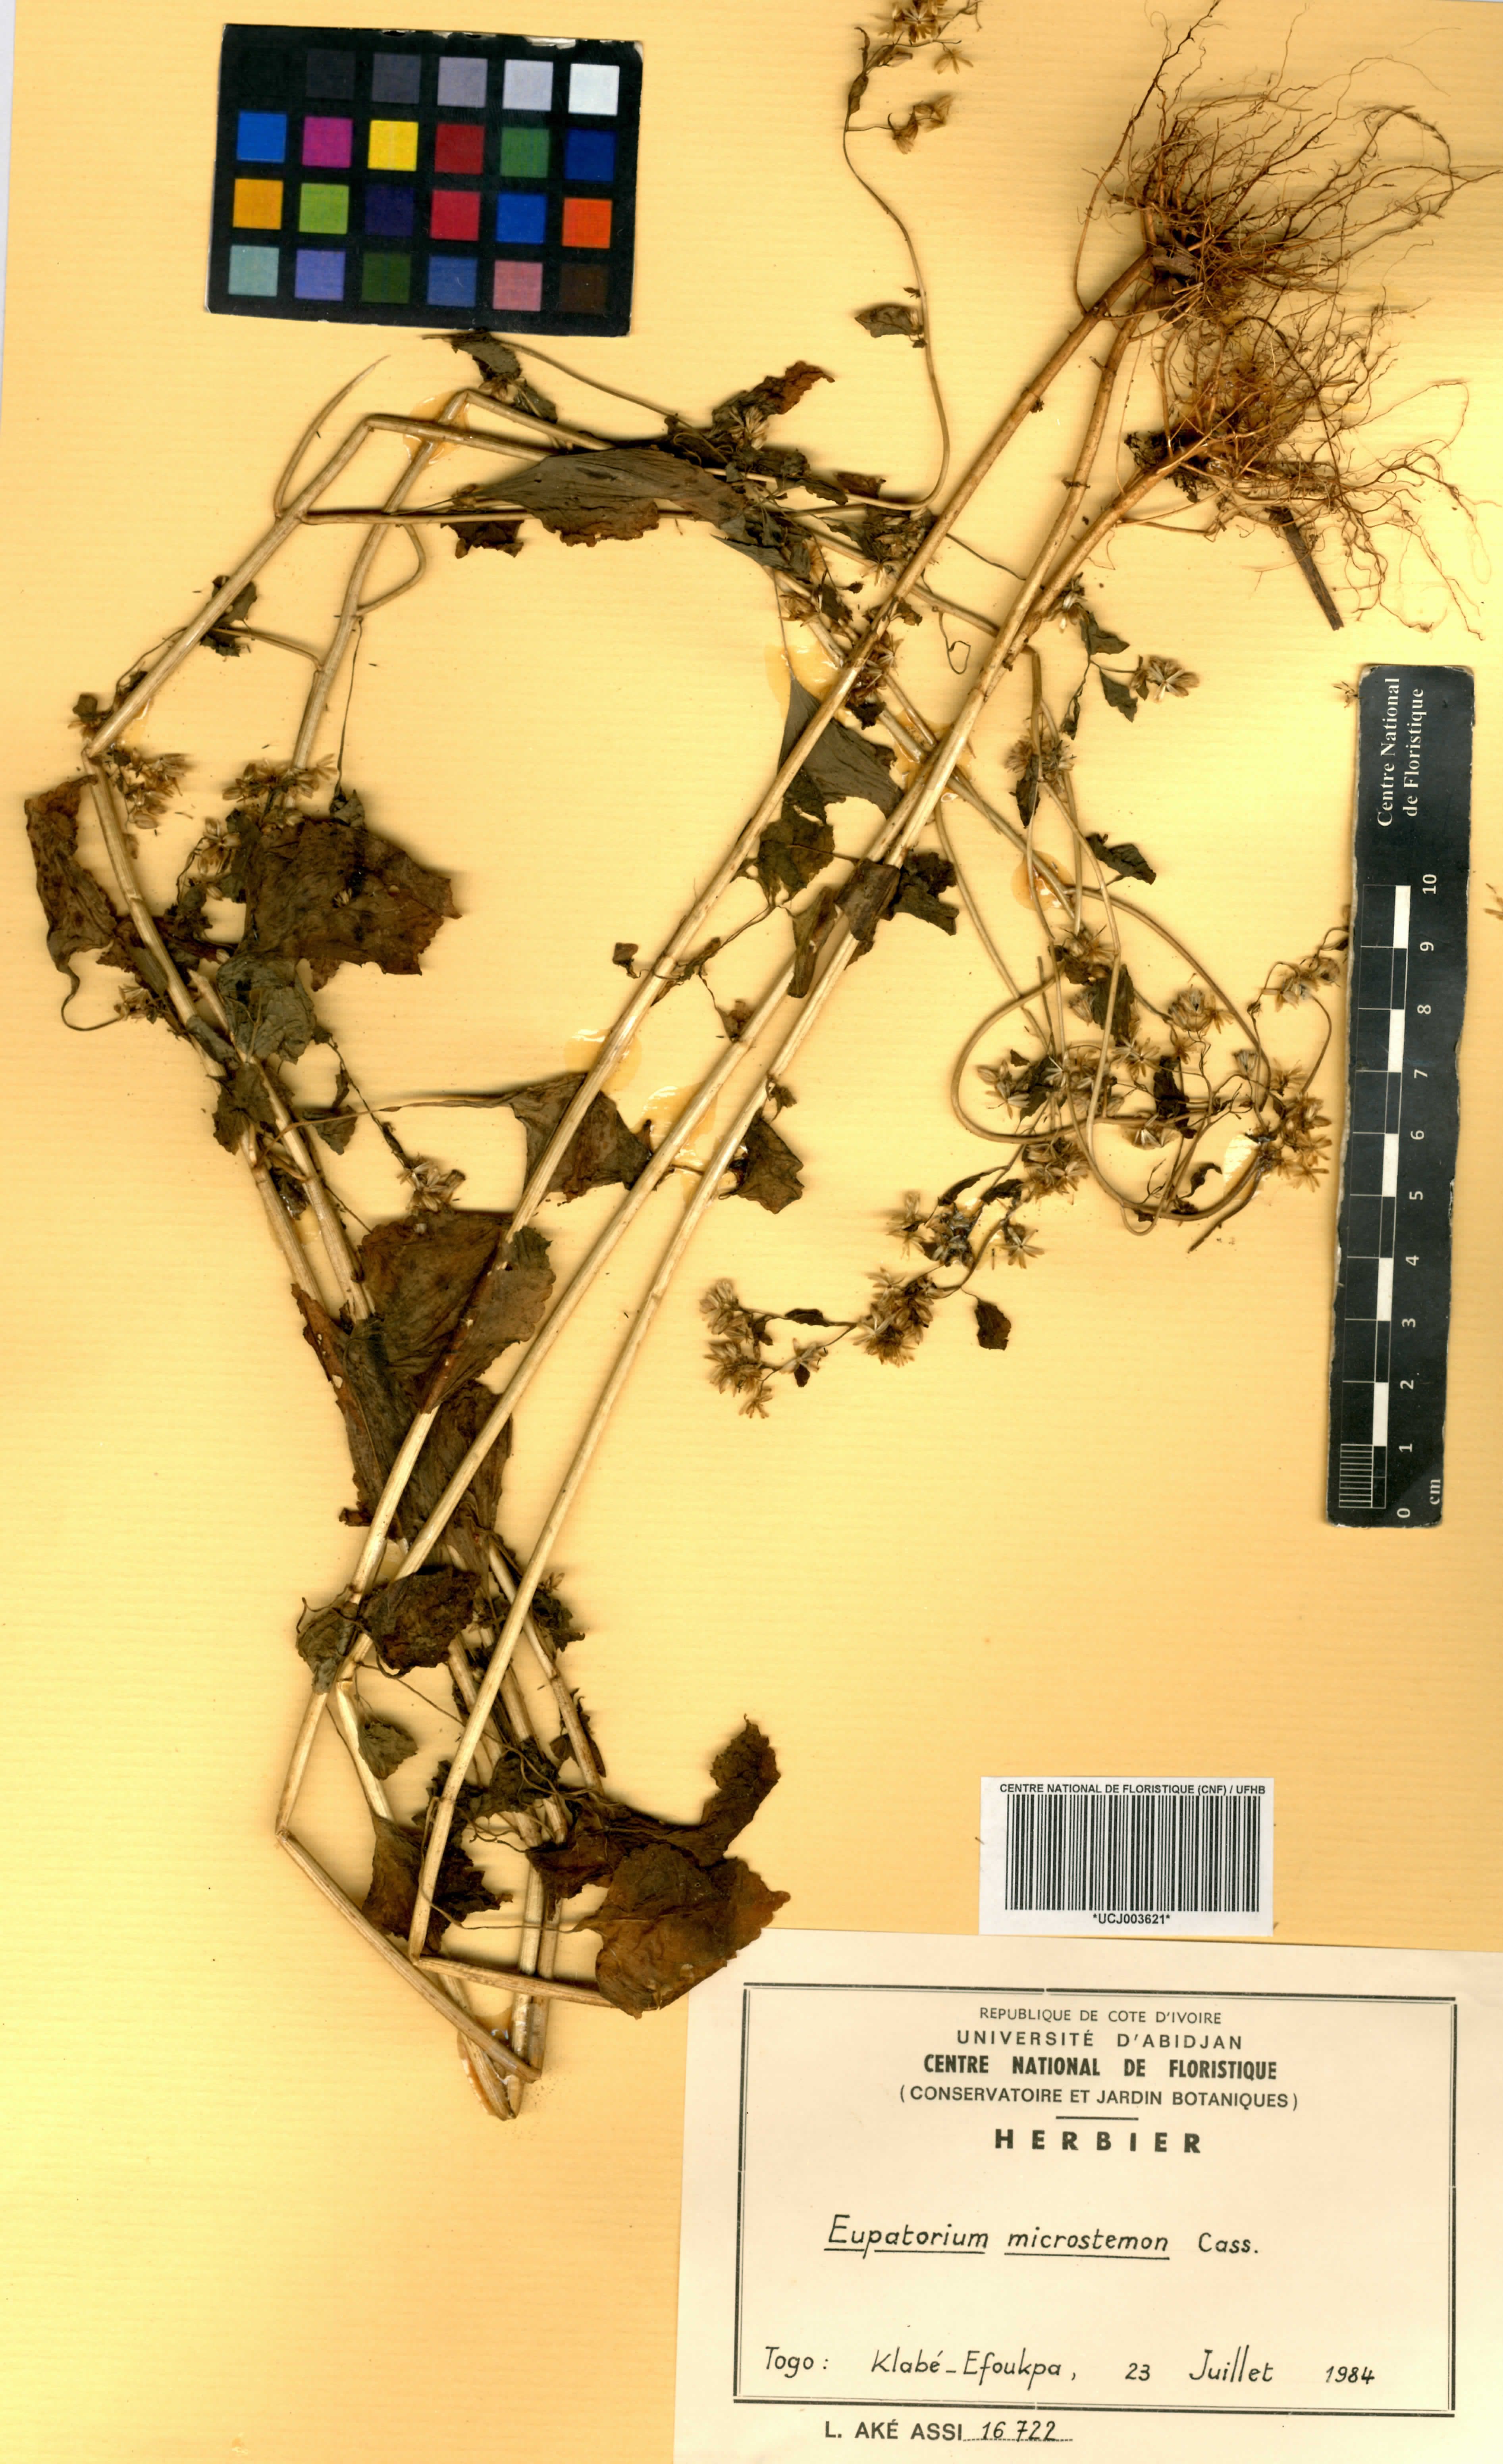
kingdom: Plantae
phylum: Tracheophyta
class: Magnoliopsida
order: Asterales
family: Asteraceae
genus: Fleischmannia
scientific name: Fleischmannia microstemon
